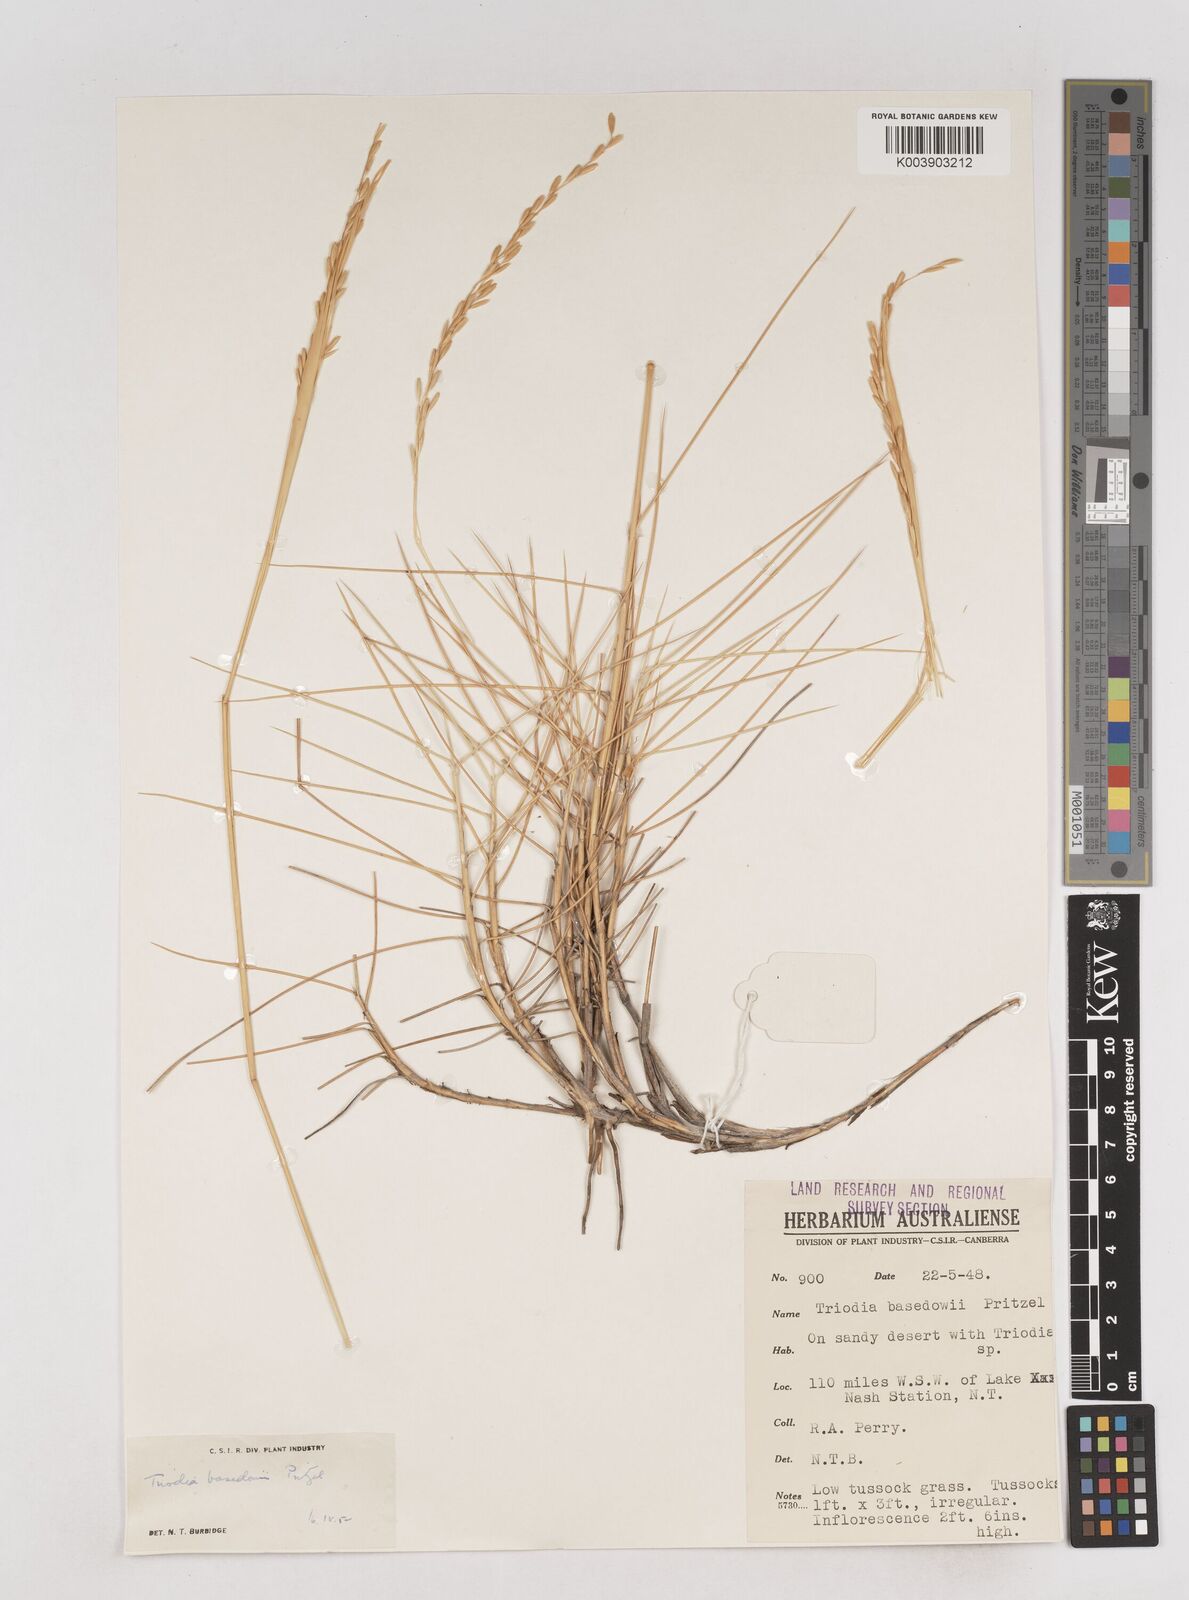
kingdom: Plantae
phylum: Tracheophyta
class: Liliopsida
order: Poales
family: Poaceae
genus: Triodia
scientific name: Triodia basedowii
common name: Hard spinifex
